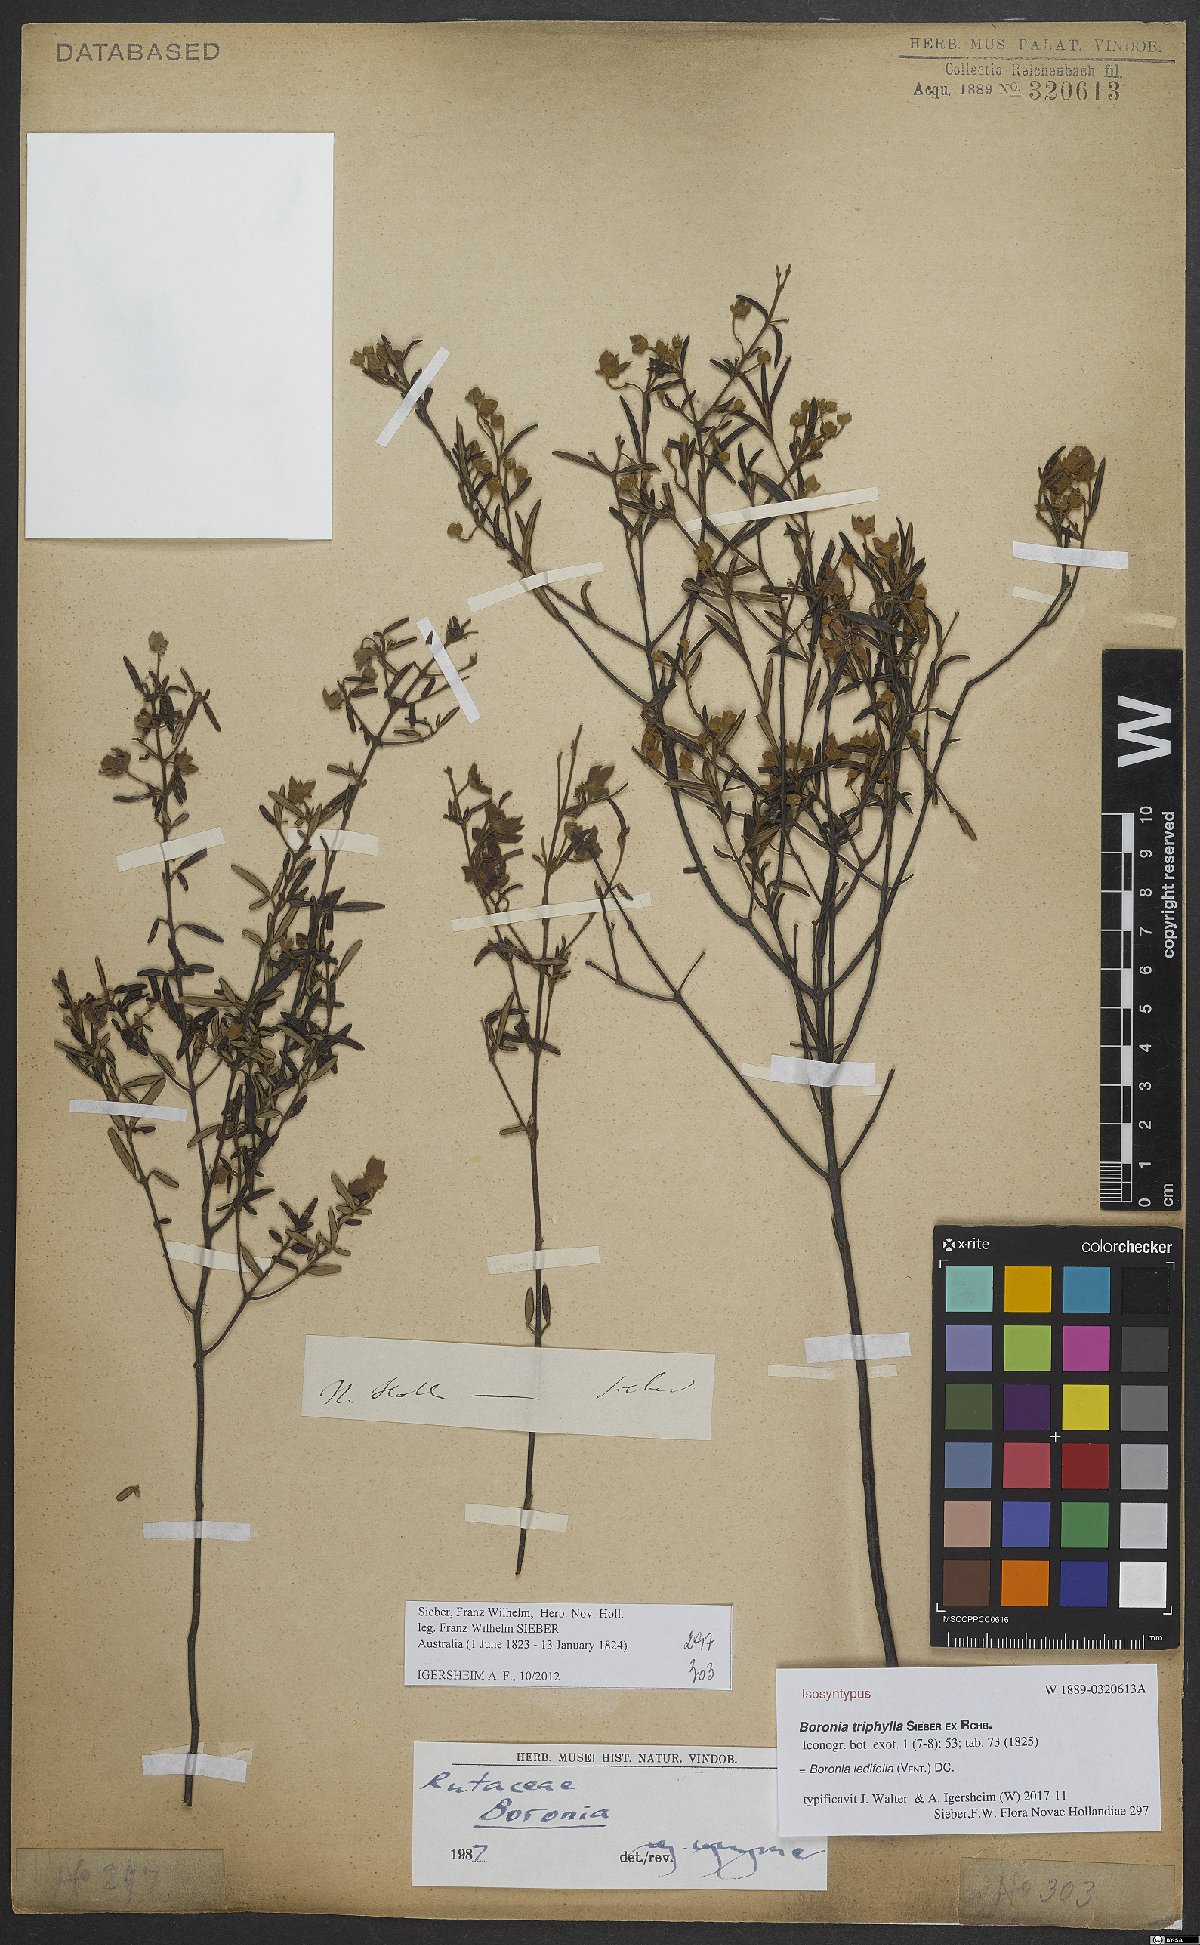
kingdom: Plantae
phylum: Tracheophyta
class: Magnoliopsida
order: Sapindales
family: Rutaceae
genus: Boronia
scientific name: Boronia ledifolia
